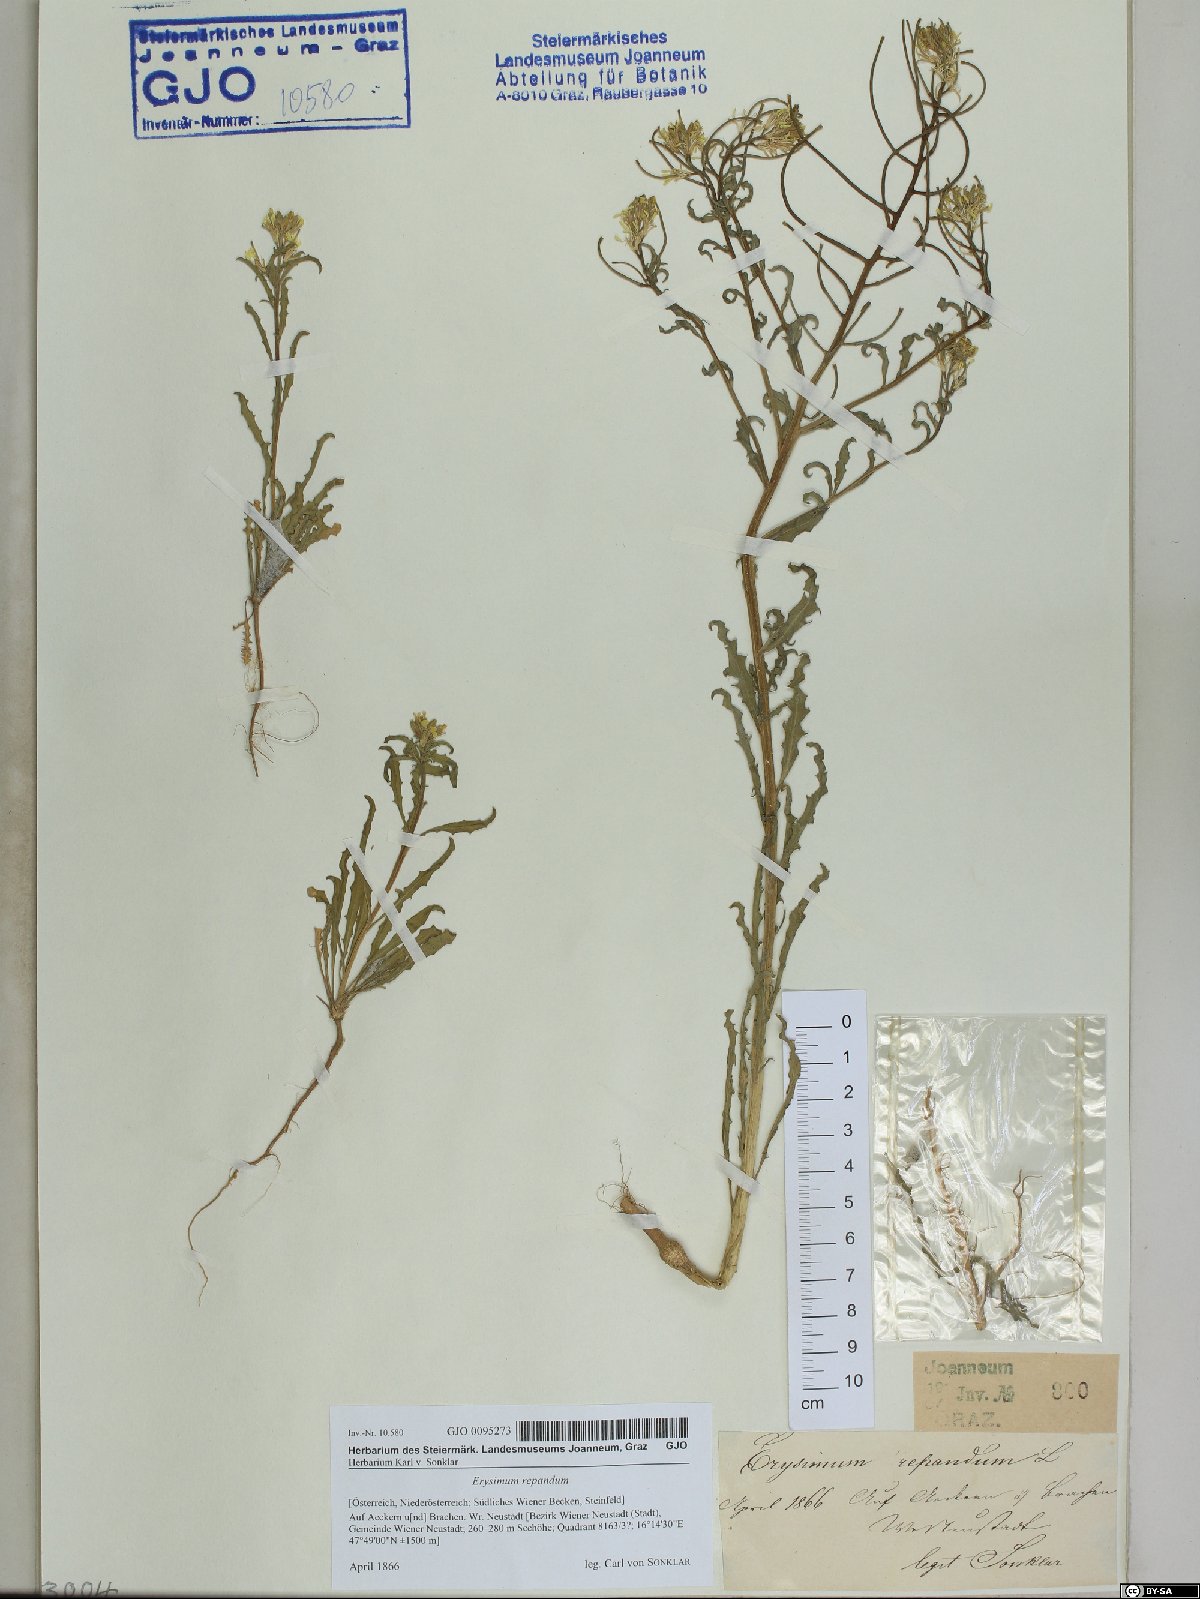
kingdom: Plantae
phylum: Tracheophyta
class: Magnoliopsida
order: Brassicales
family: Brassicaceae
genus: Erysimum
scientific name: Erysimum repandum
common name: Spreading wallflower
